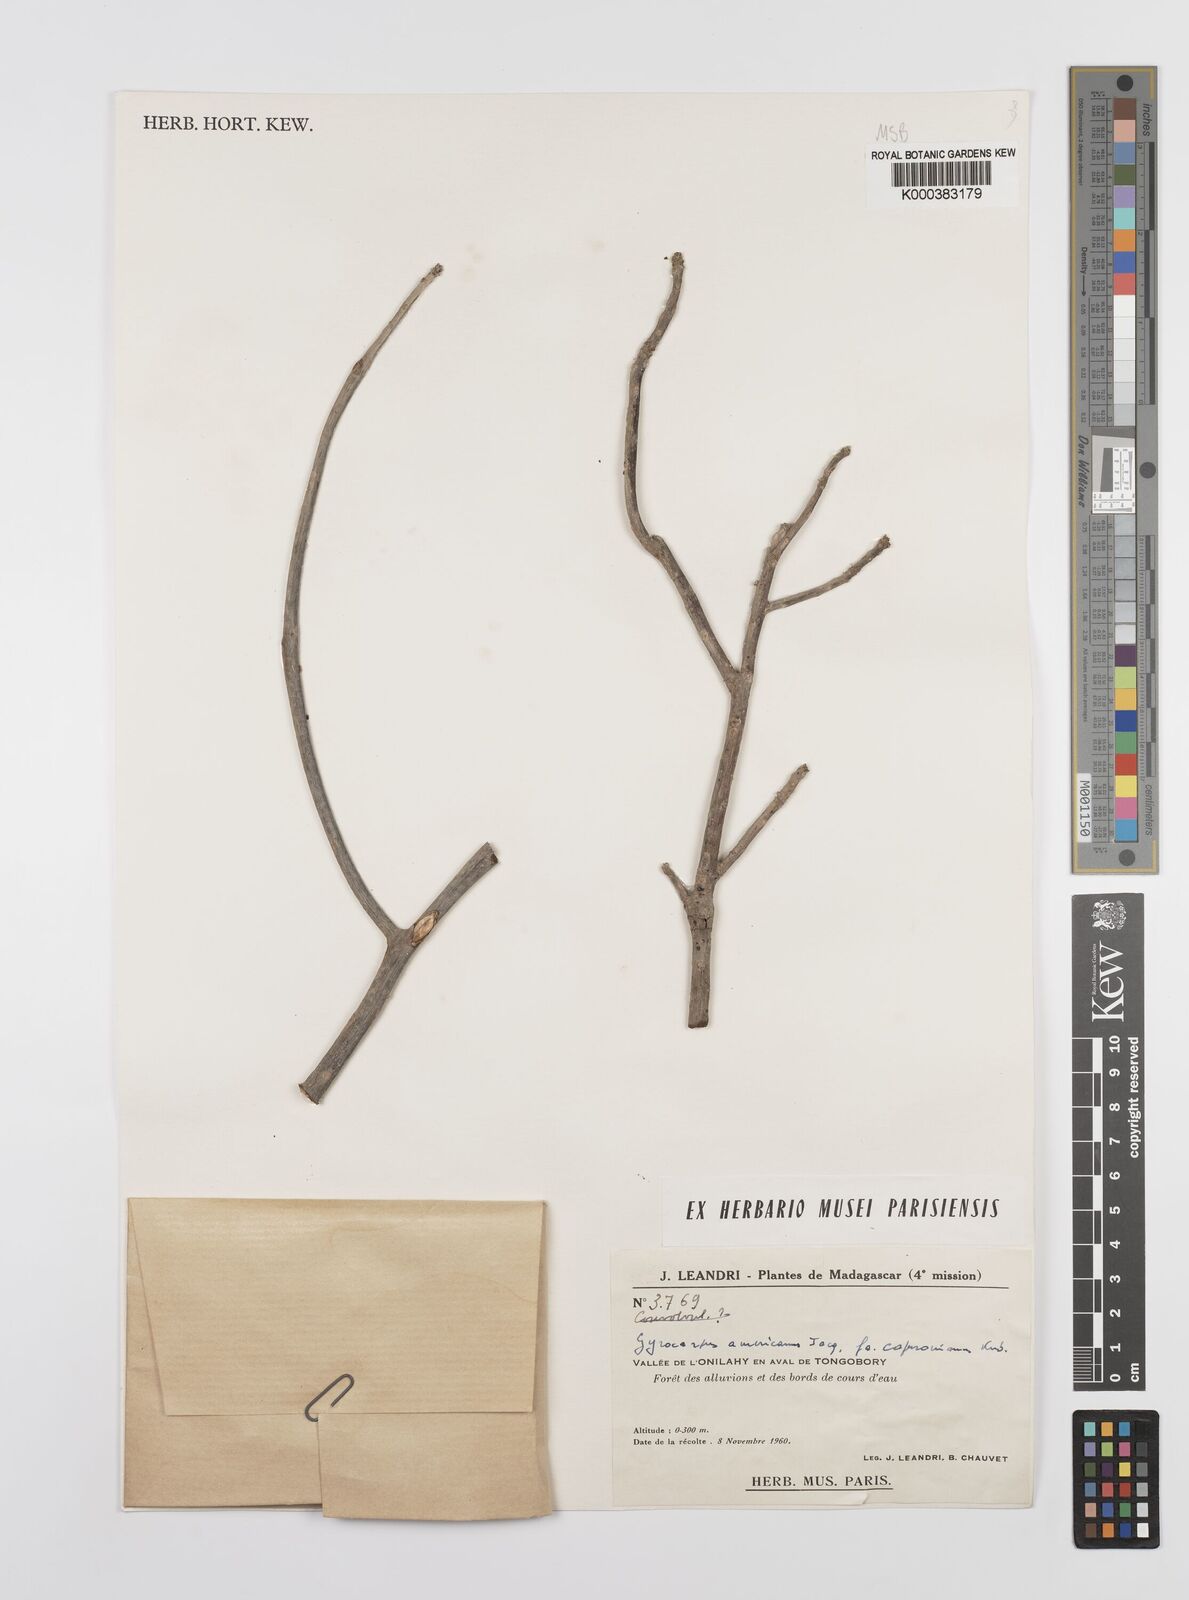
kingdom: Plantae
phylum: Tracheophyta
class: Magnoliopsida
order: Laurales
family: Hernandiaceae
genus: Gyrocarpus
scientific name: Gyrocarpus americanus
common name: Gyro damson
